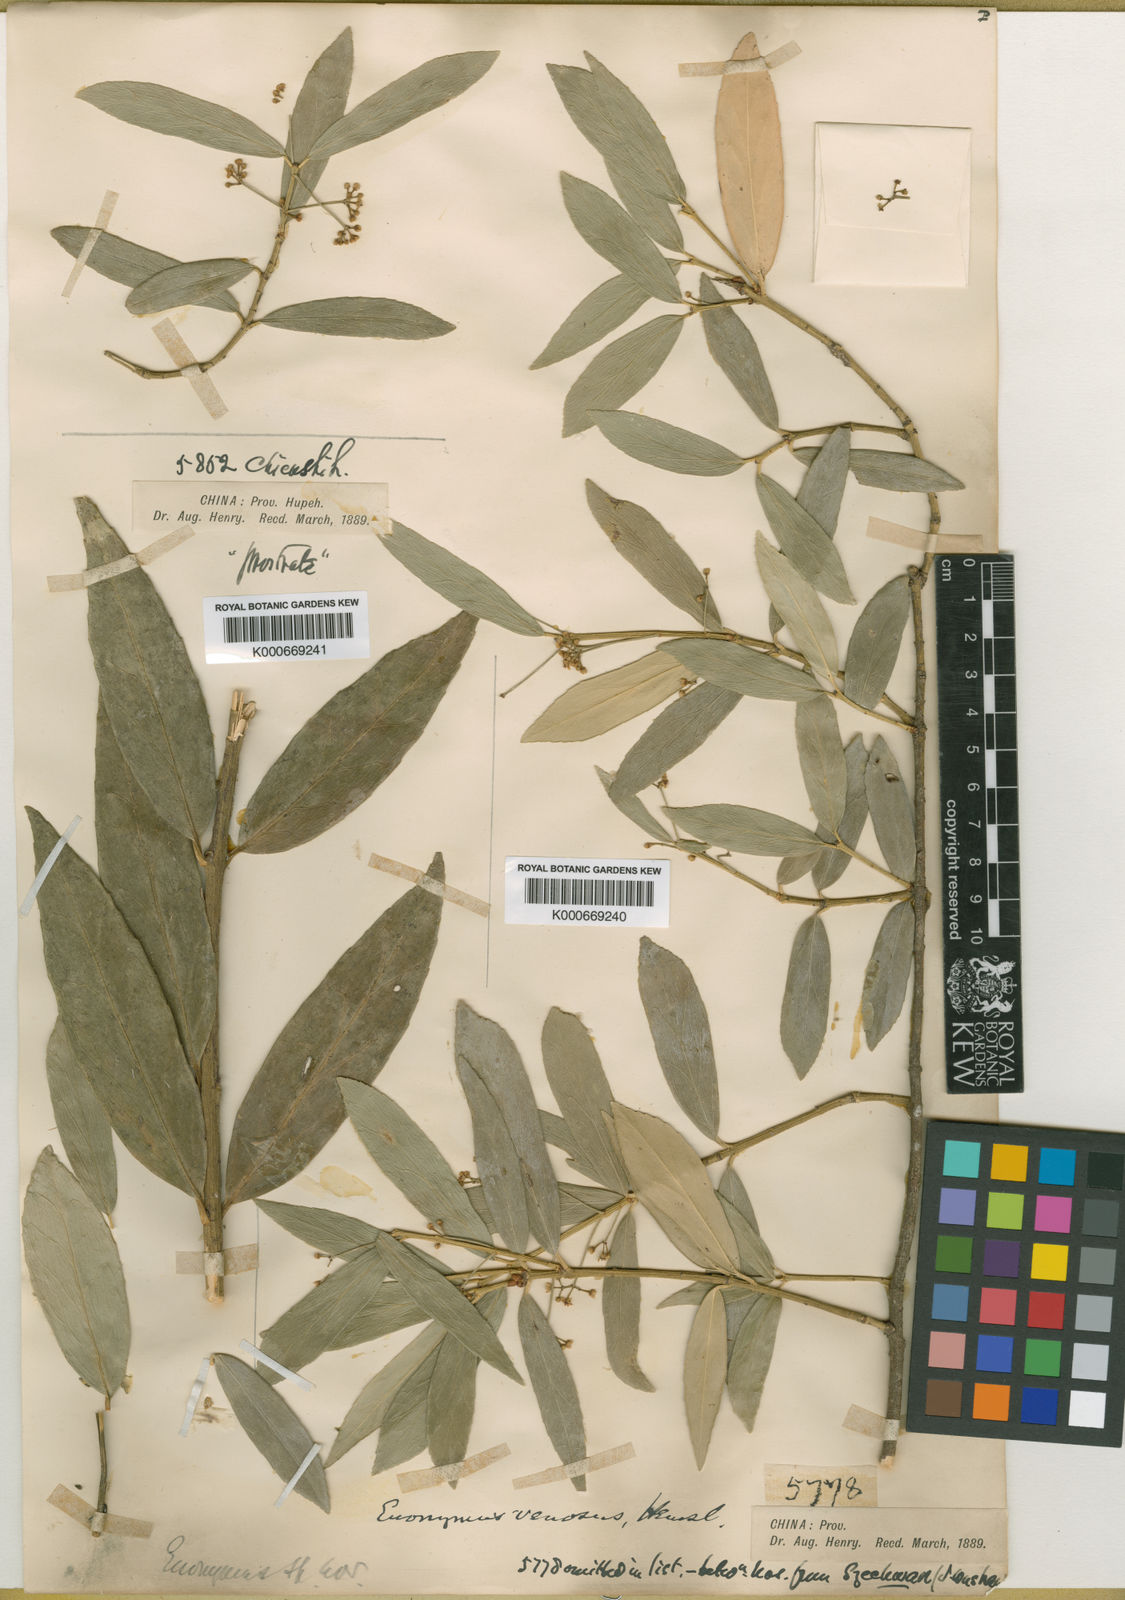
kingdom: Plantae
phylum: Tracheophyta
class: Magnoliopsida
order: Celastrales
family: Celastraceae
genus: Euonymus
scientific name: Euonymus venosus
